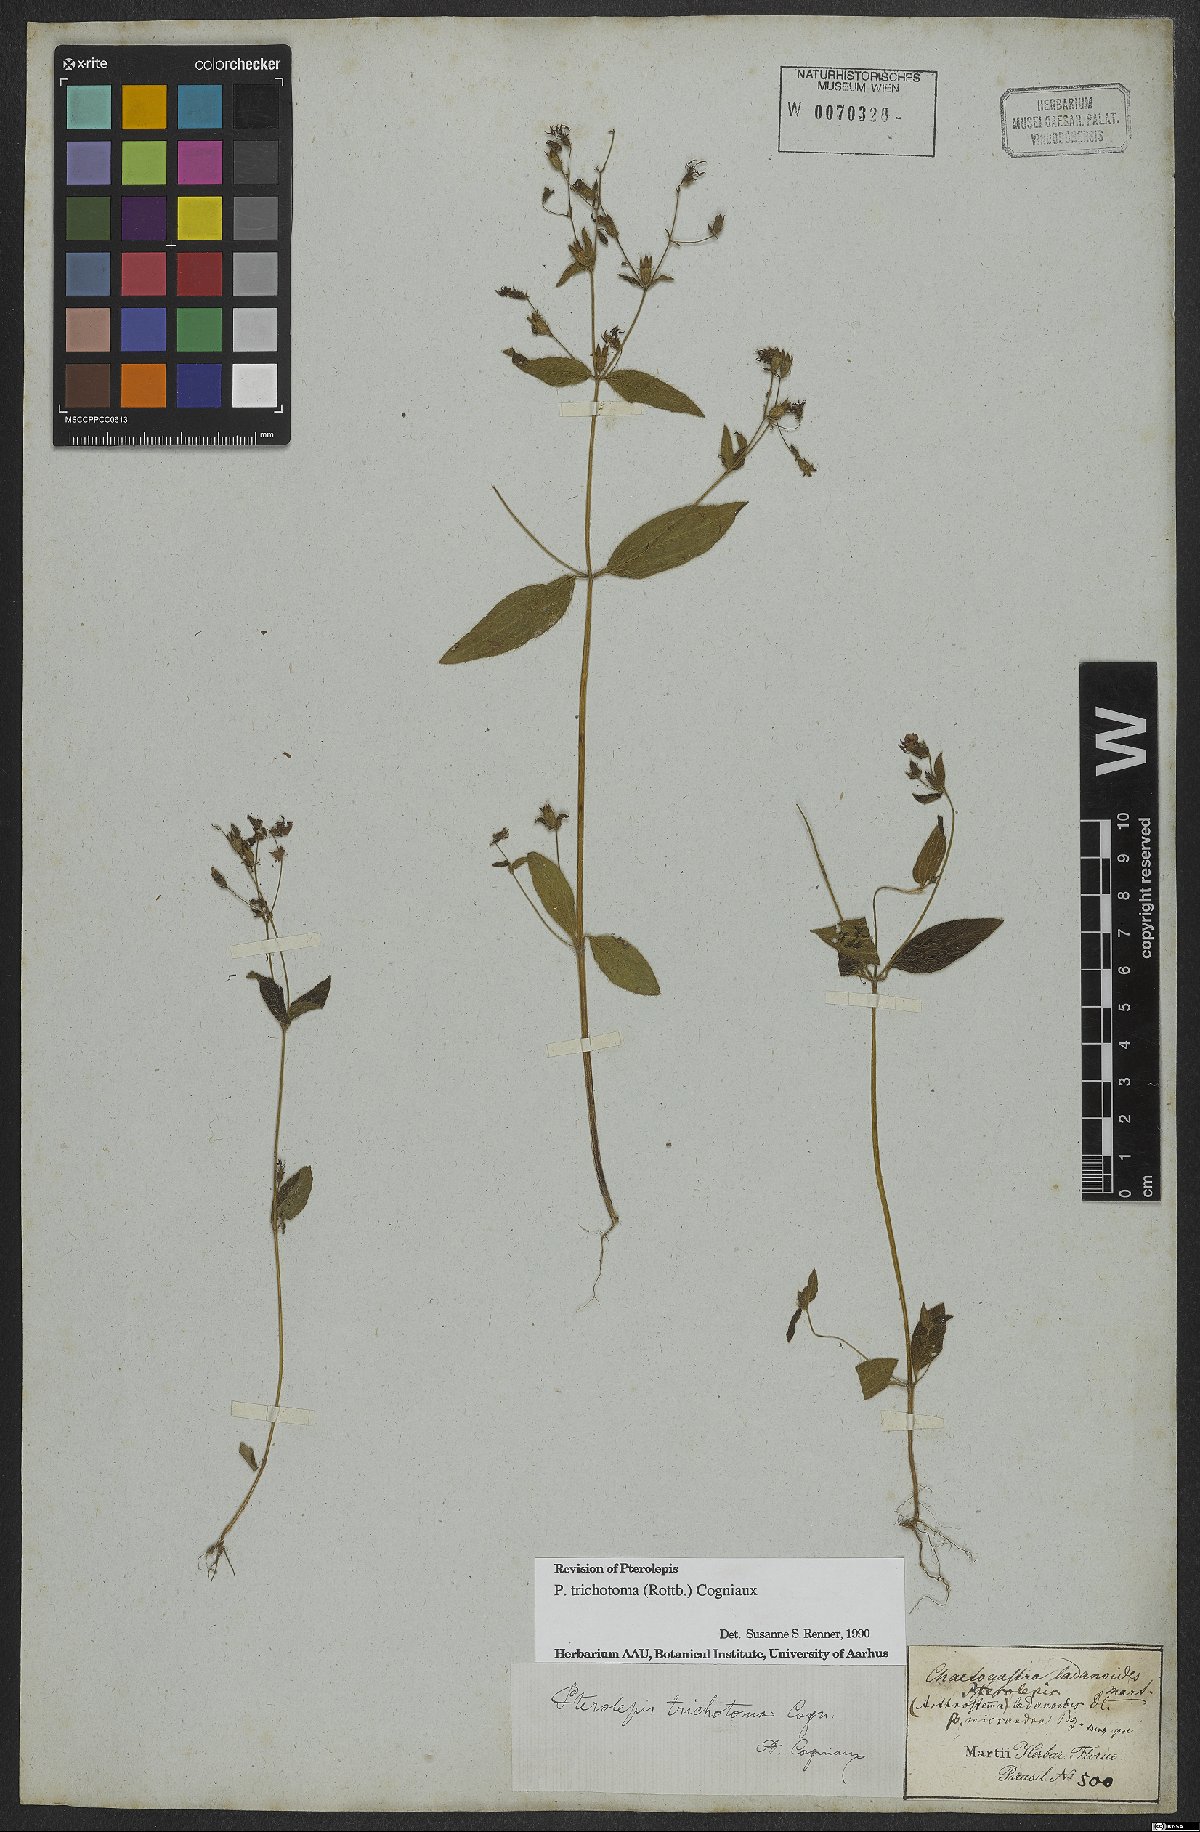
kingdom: Plantae
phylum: Tracheophyta
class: Magnoliopsida
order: Myrtales
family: Melastomataceae
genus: Pterolepis
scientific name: Pterolepis trichotoma
